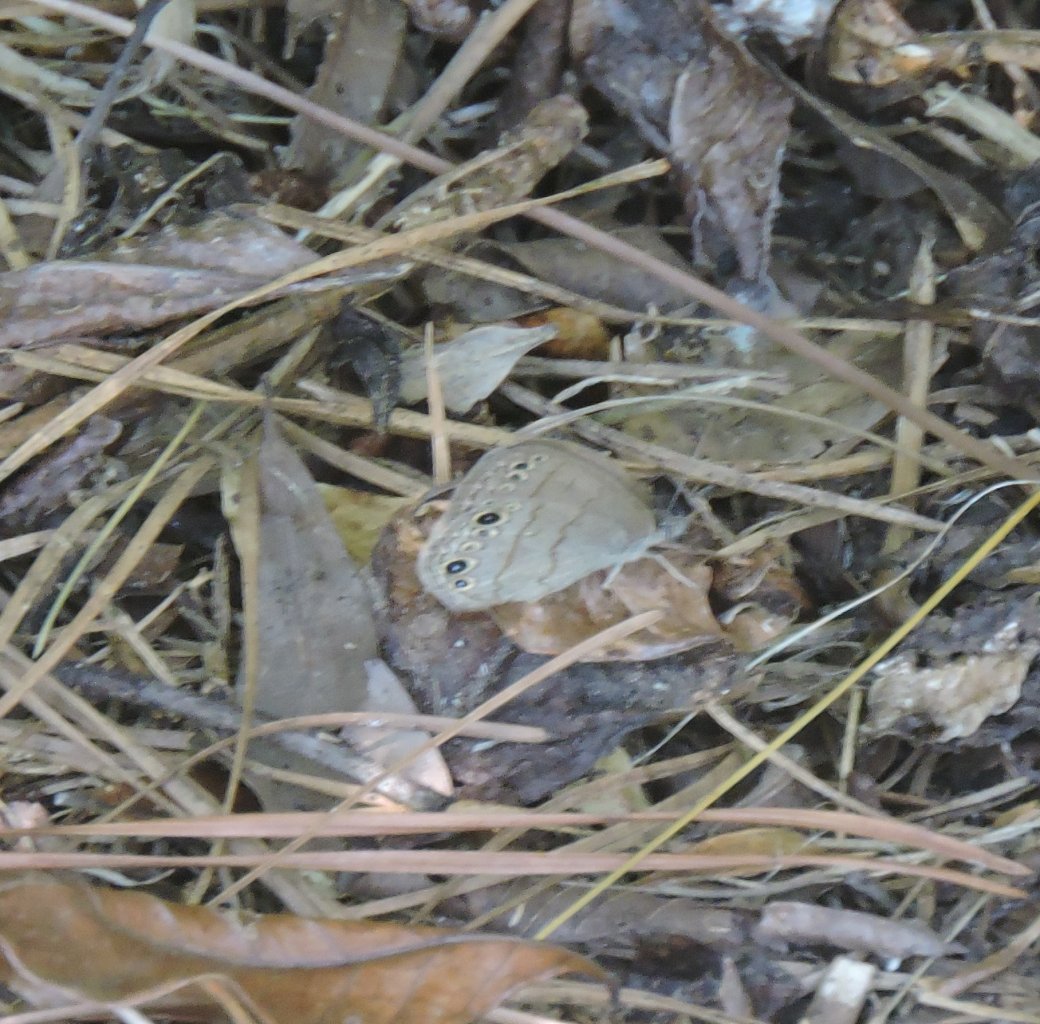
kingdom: Animalia
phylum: Arthropoda
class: Insecta
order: Lepidoptera
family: Nymphalidae
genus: Hermeuptychia
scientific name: Hermeuptychia hermes
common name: Carolina Satyr
